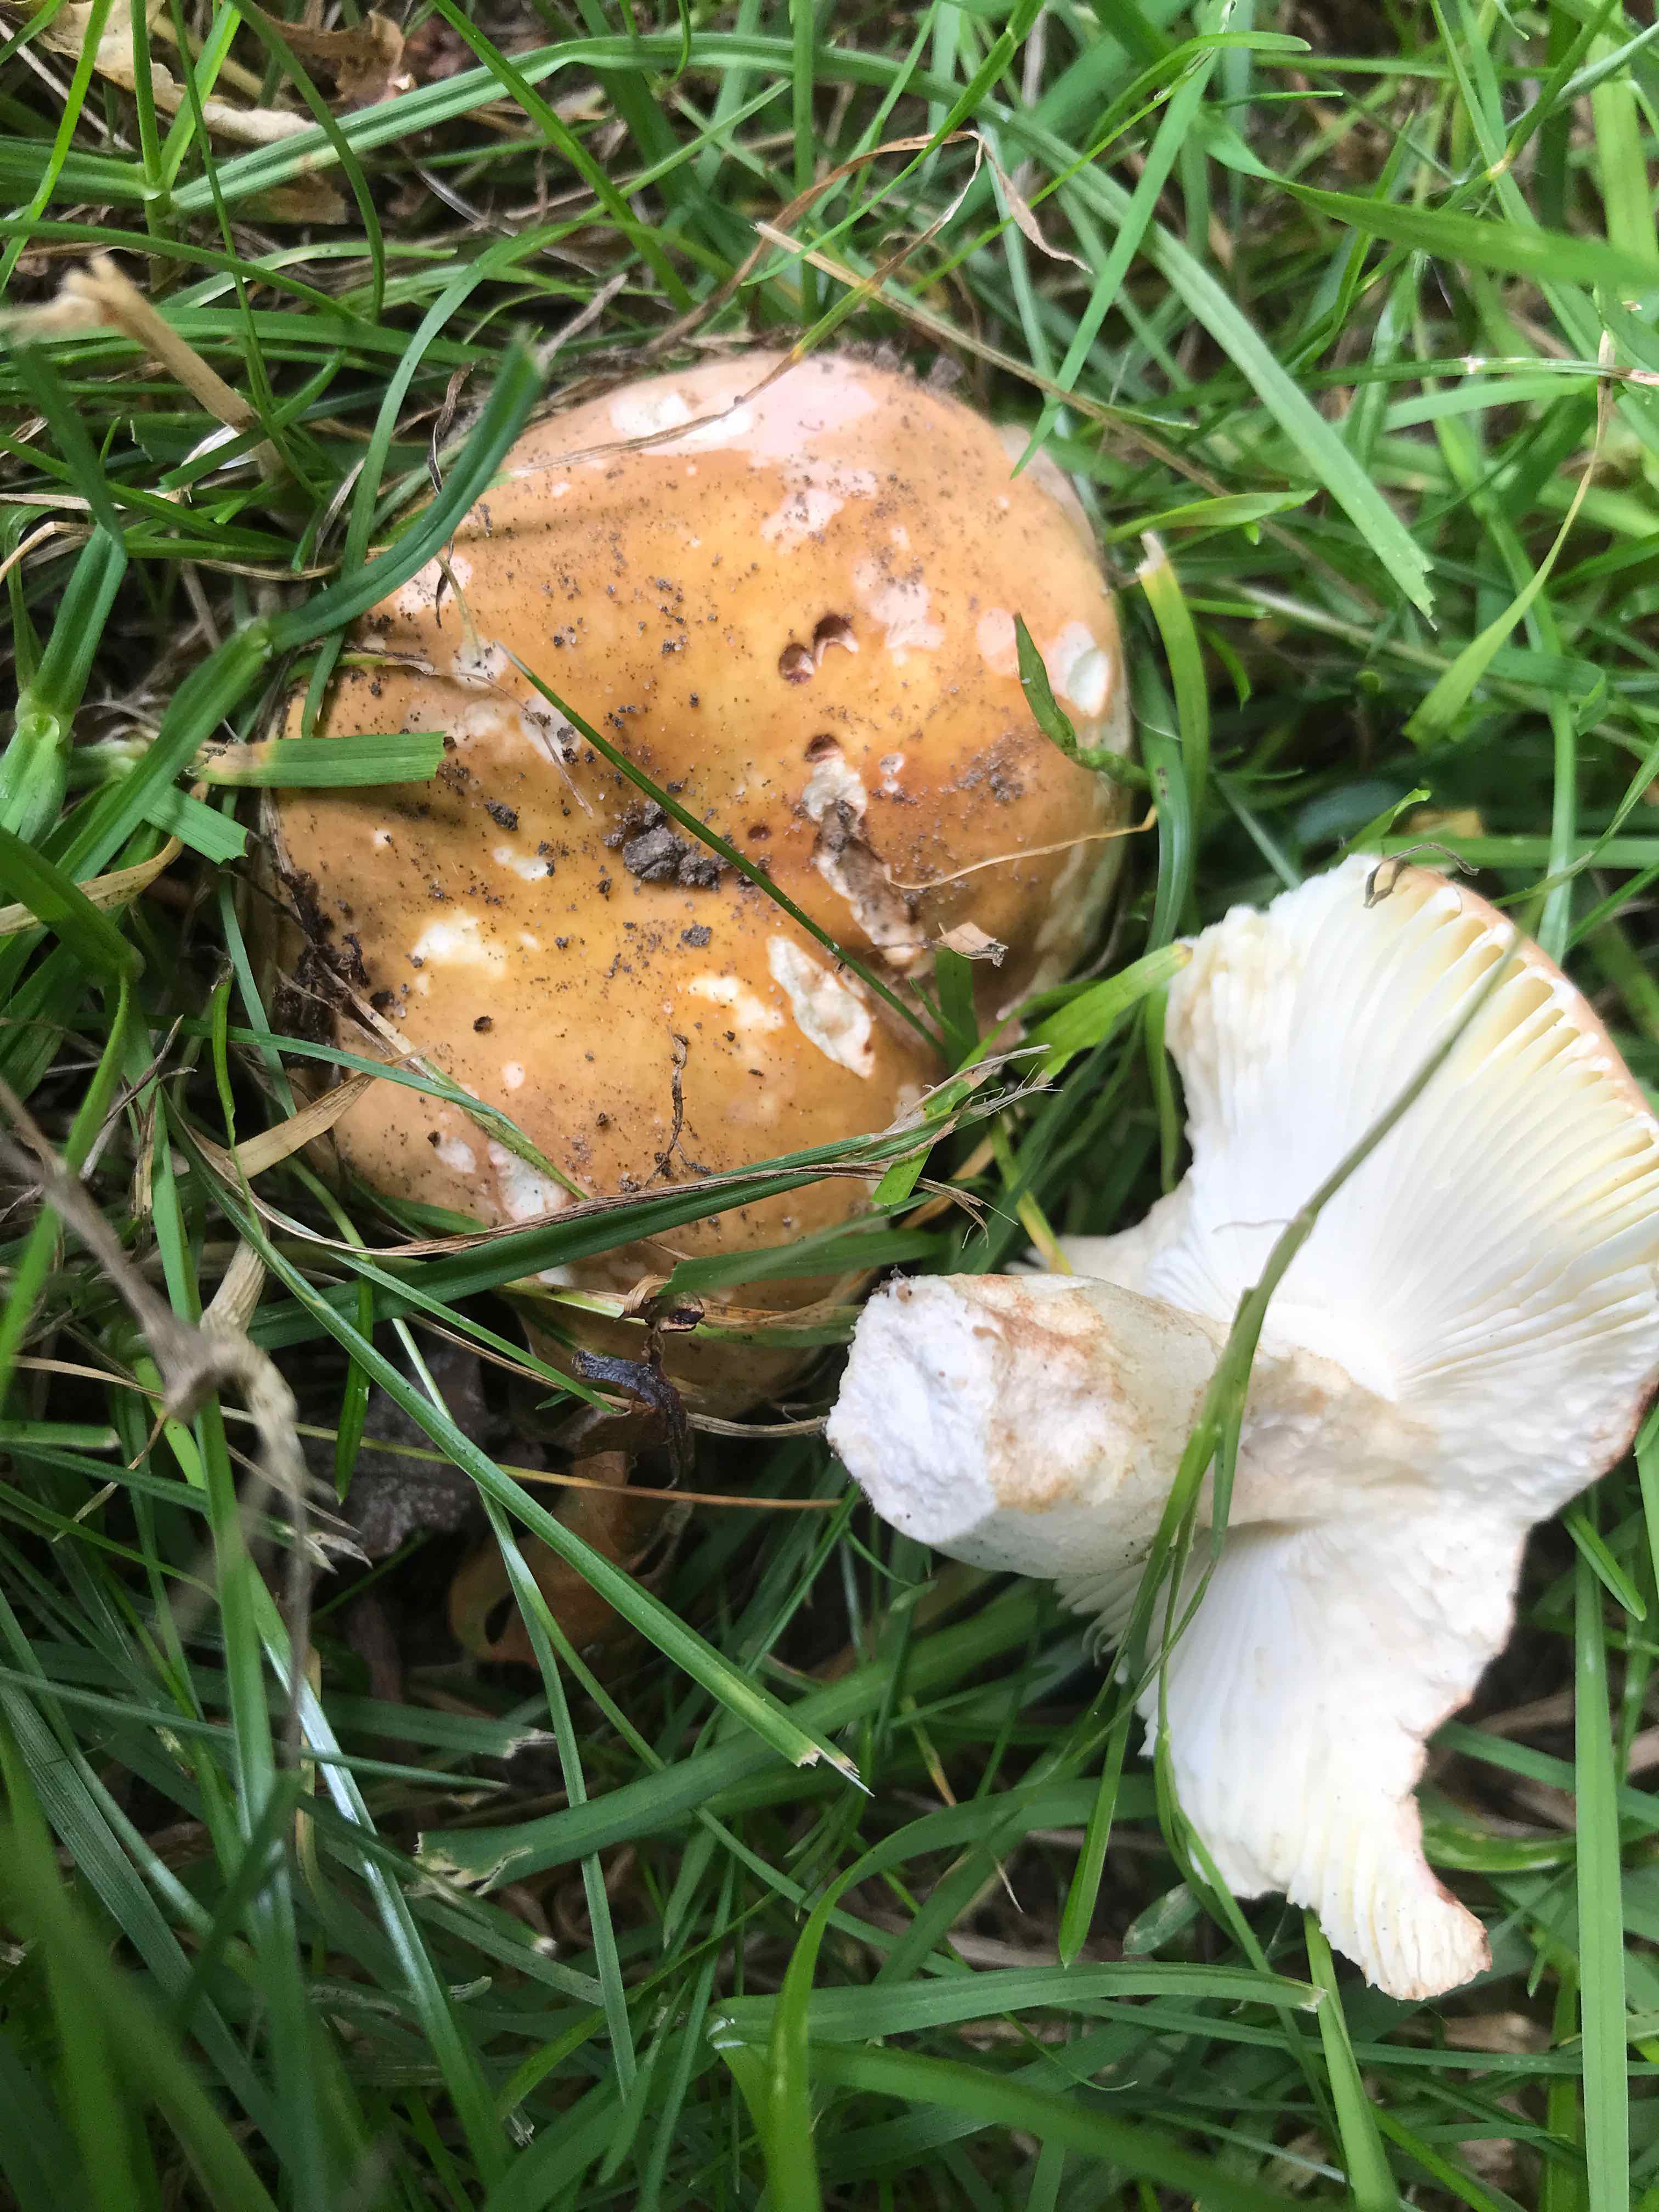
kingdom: Fungi
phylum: Basidiomycota
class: Agaricomycetes
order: Russulales
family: Russulaceae
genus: Russula
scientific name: Russula
